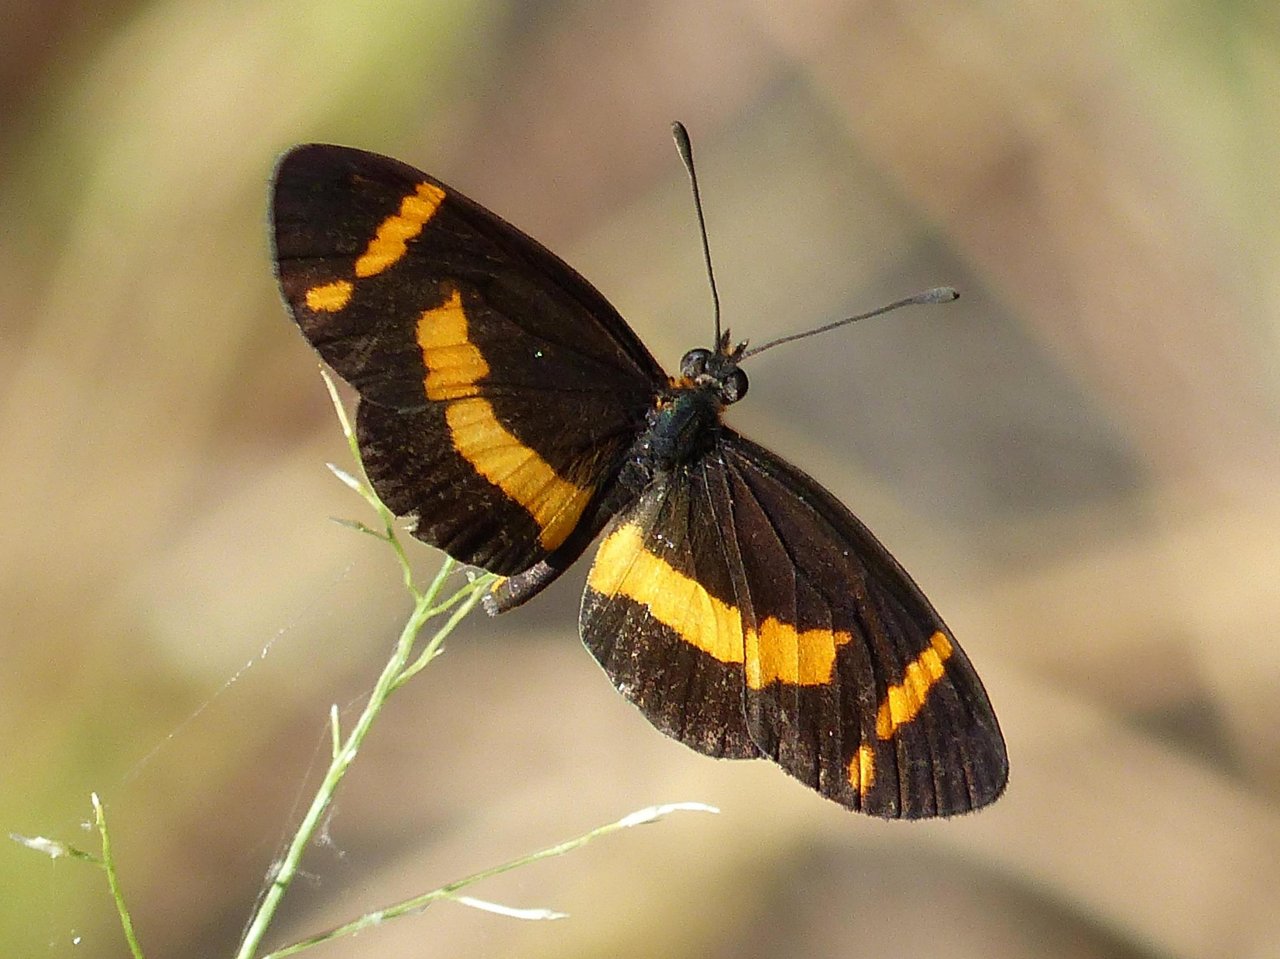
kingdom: Animalia
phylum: Arthropoda
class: Insecta
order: Lepidoptera
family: Nymphalidae
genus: Microtia
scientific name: Microtia elva
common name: Elf
